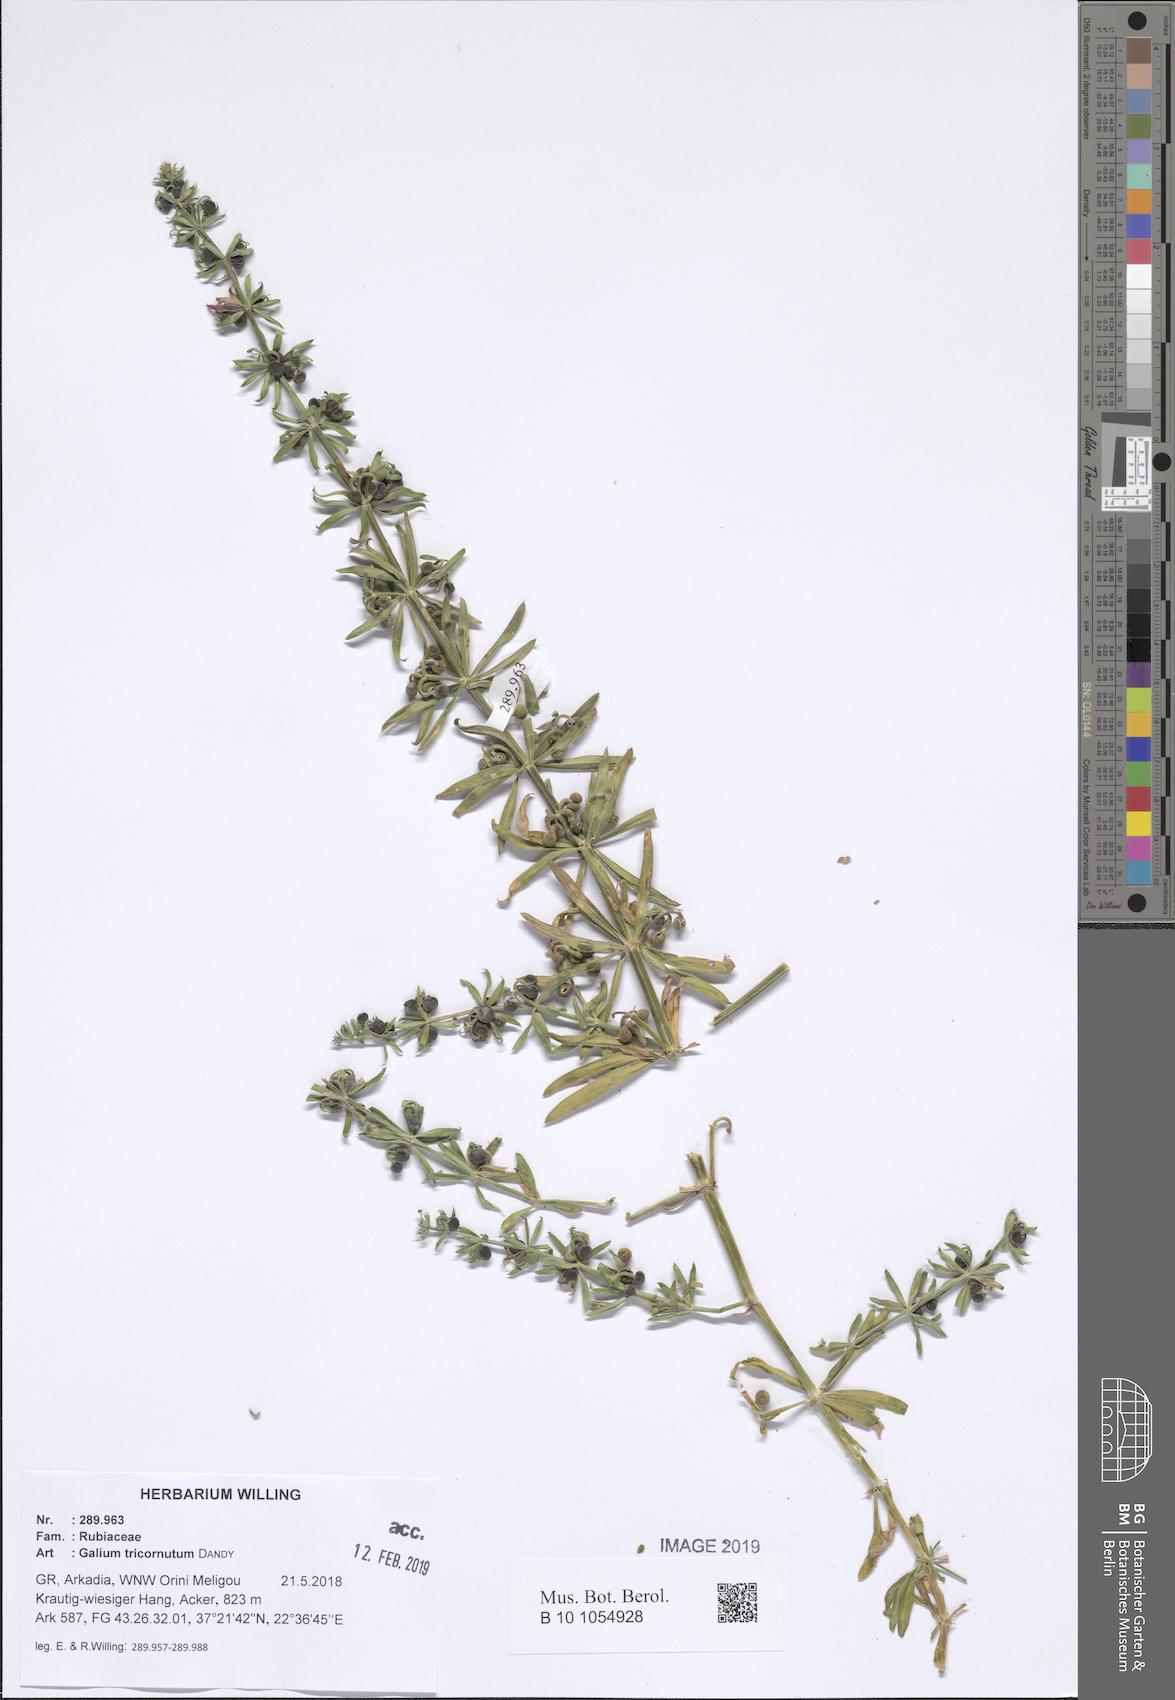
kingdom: Plantae
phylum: Tracheophyta
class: Magnoliopsida
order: Gentianales
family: Rubiaceae
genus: Galium
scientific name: Galium tricornutum
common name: Corn cleavers
